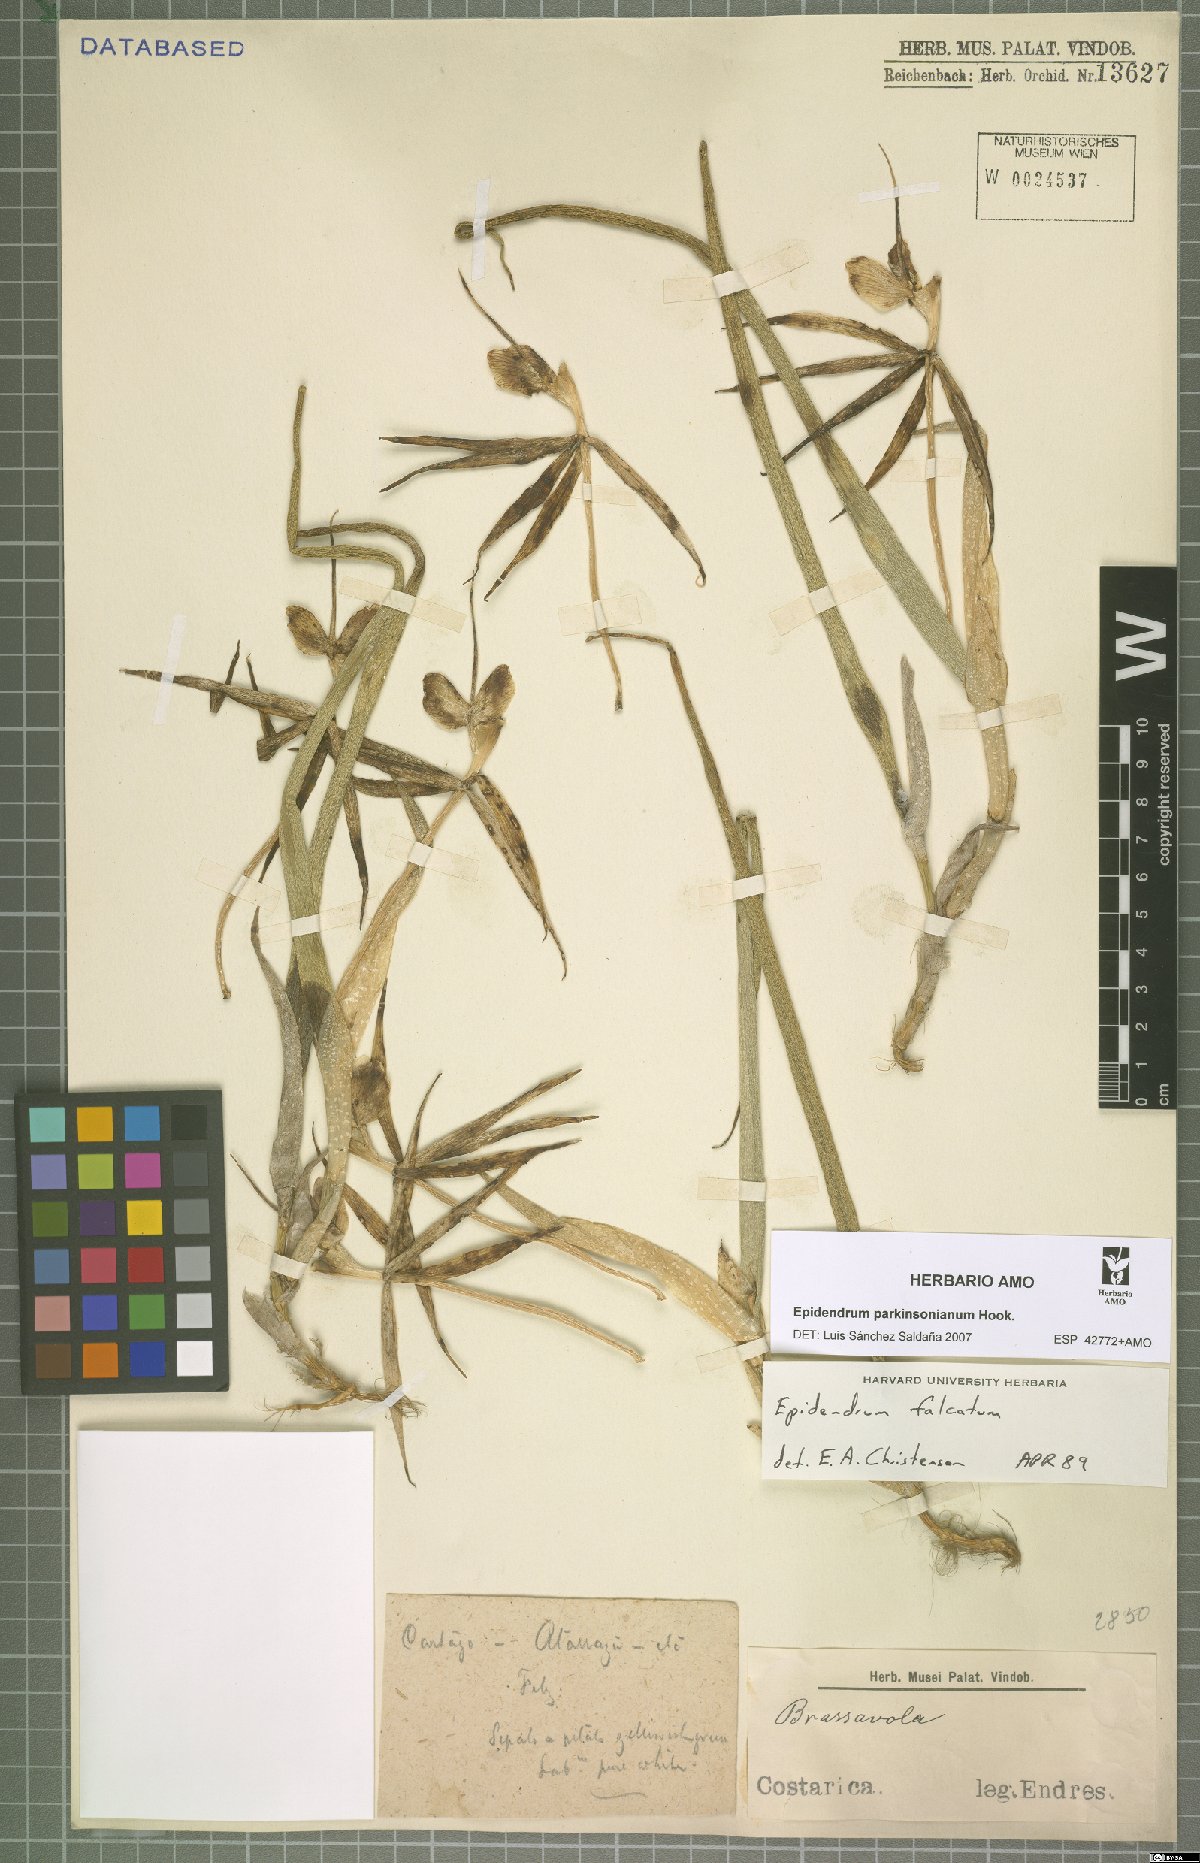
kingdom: Plantae
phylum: Tracheophyta
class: Liliopsida
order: Asparagales
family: Orchidaceae
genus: Epidendrum
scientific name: Epidendrum parkinsonianum
